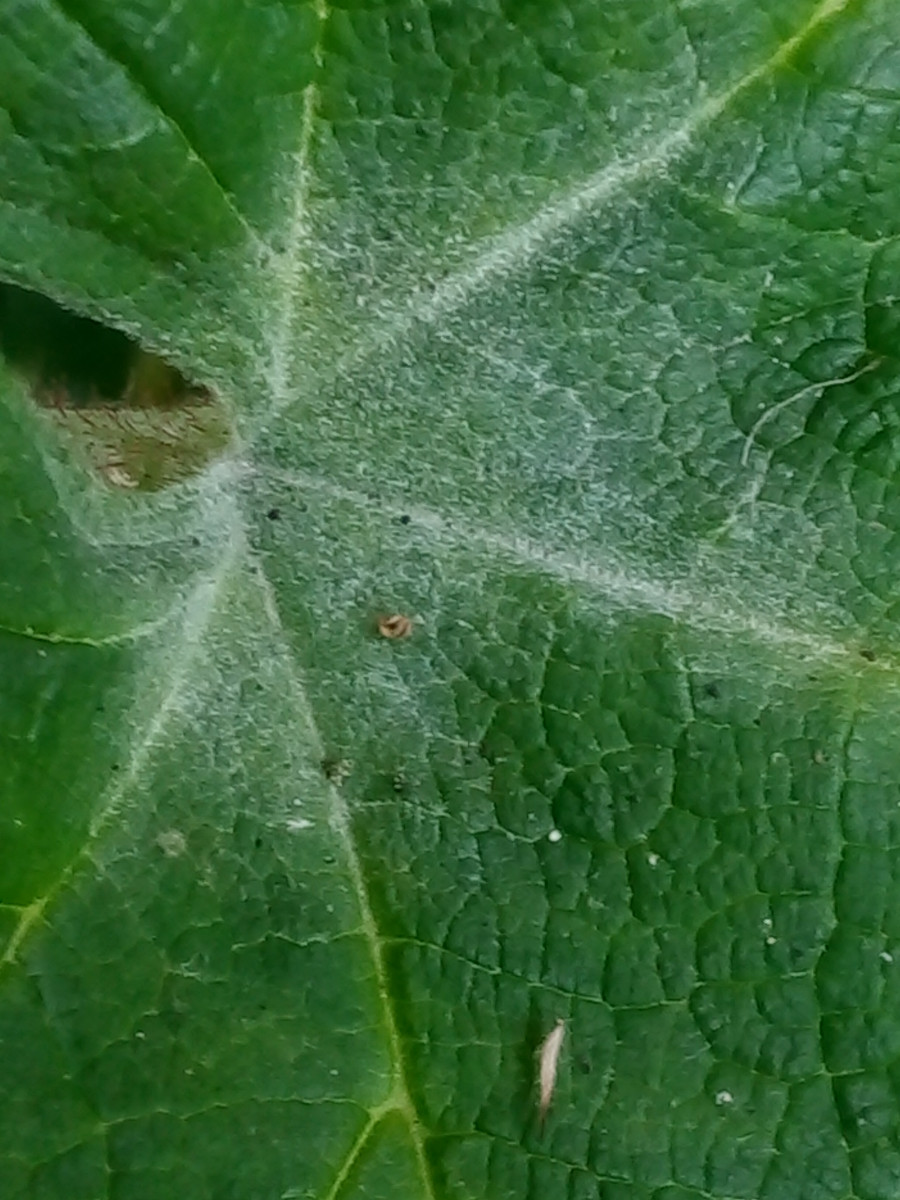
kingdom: Fungi
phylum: Ascomycota
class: Leotiomycetes
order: Helotiales
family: Erysiphaceae
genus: Podosphaera
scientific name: Podosphaera aphanis
